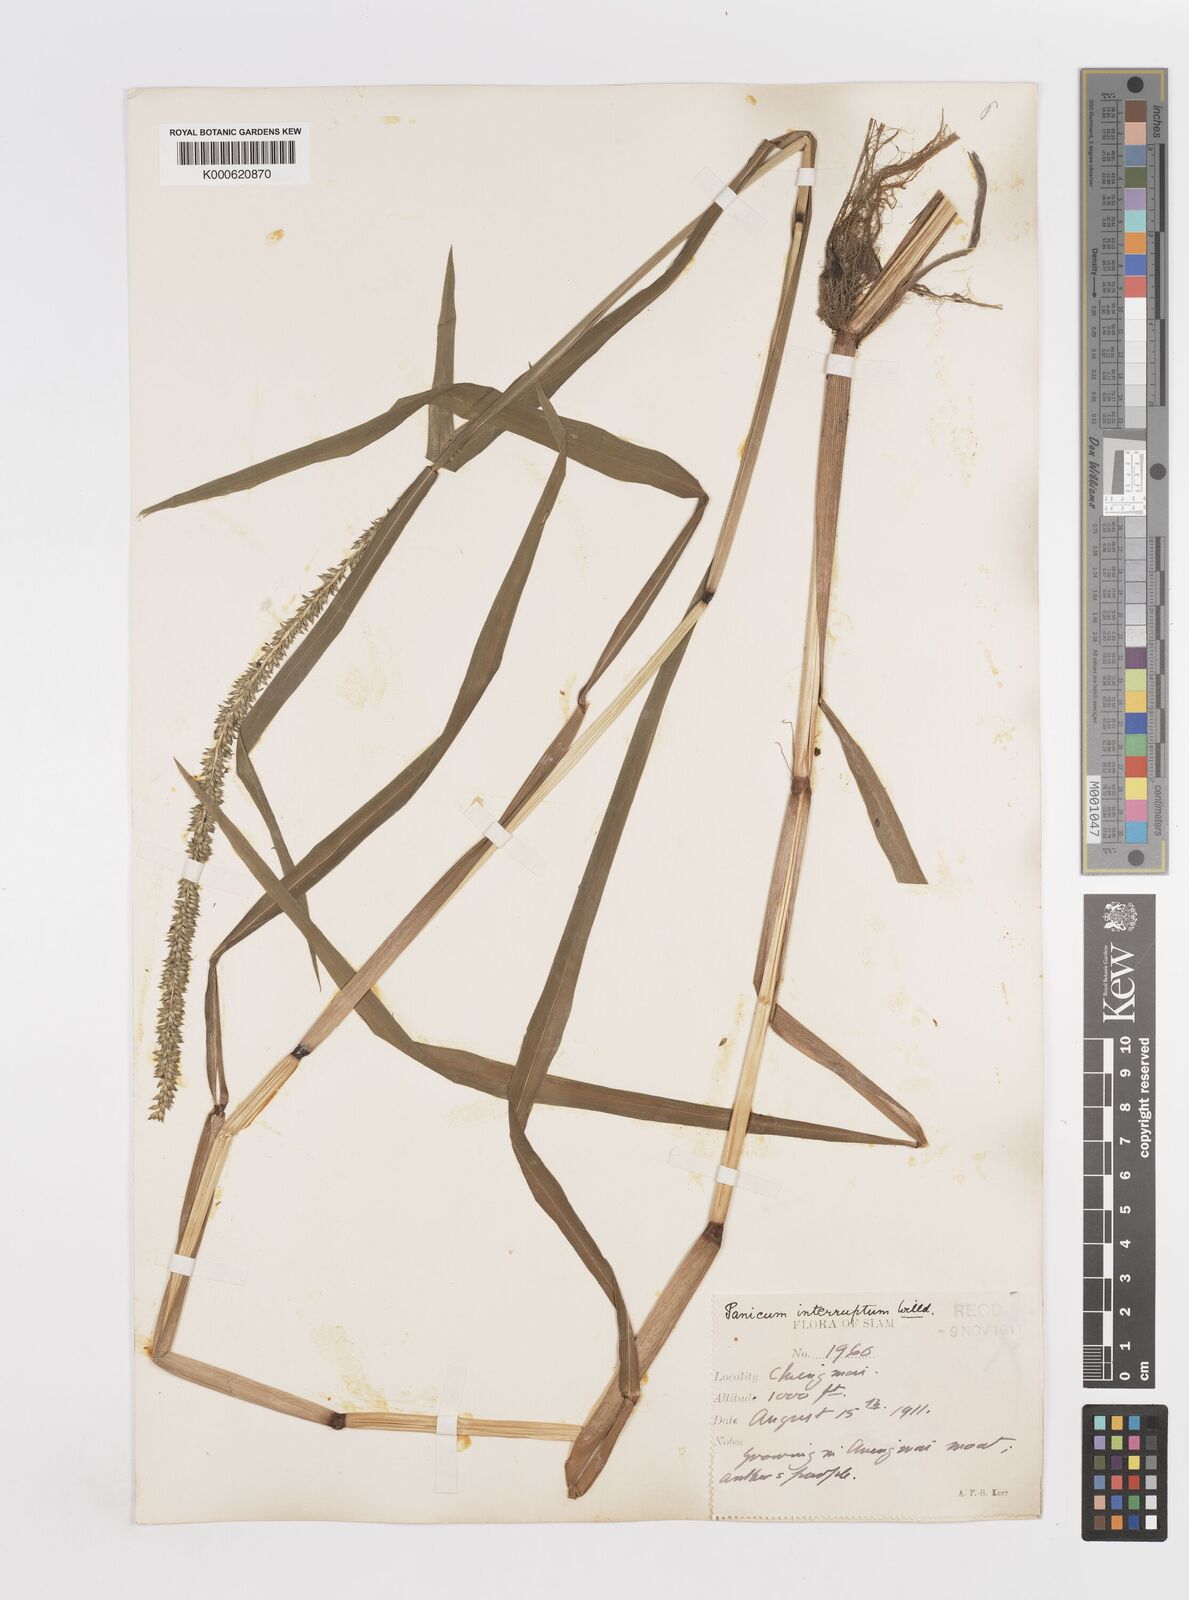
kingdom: Plantae
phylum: Tracheophyta
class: Liliopsida
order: Poales
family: Poaceae
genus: Sacciolepis
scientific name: Sacciolepis interrupta
